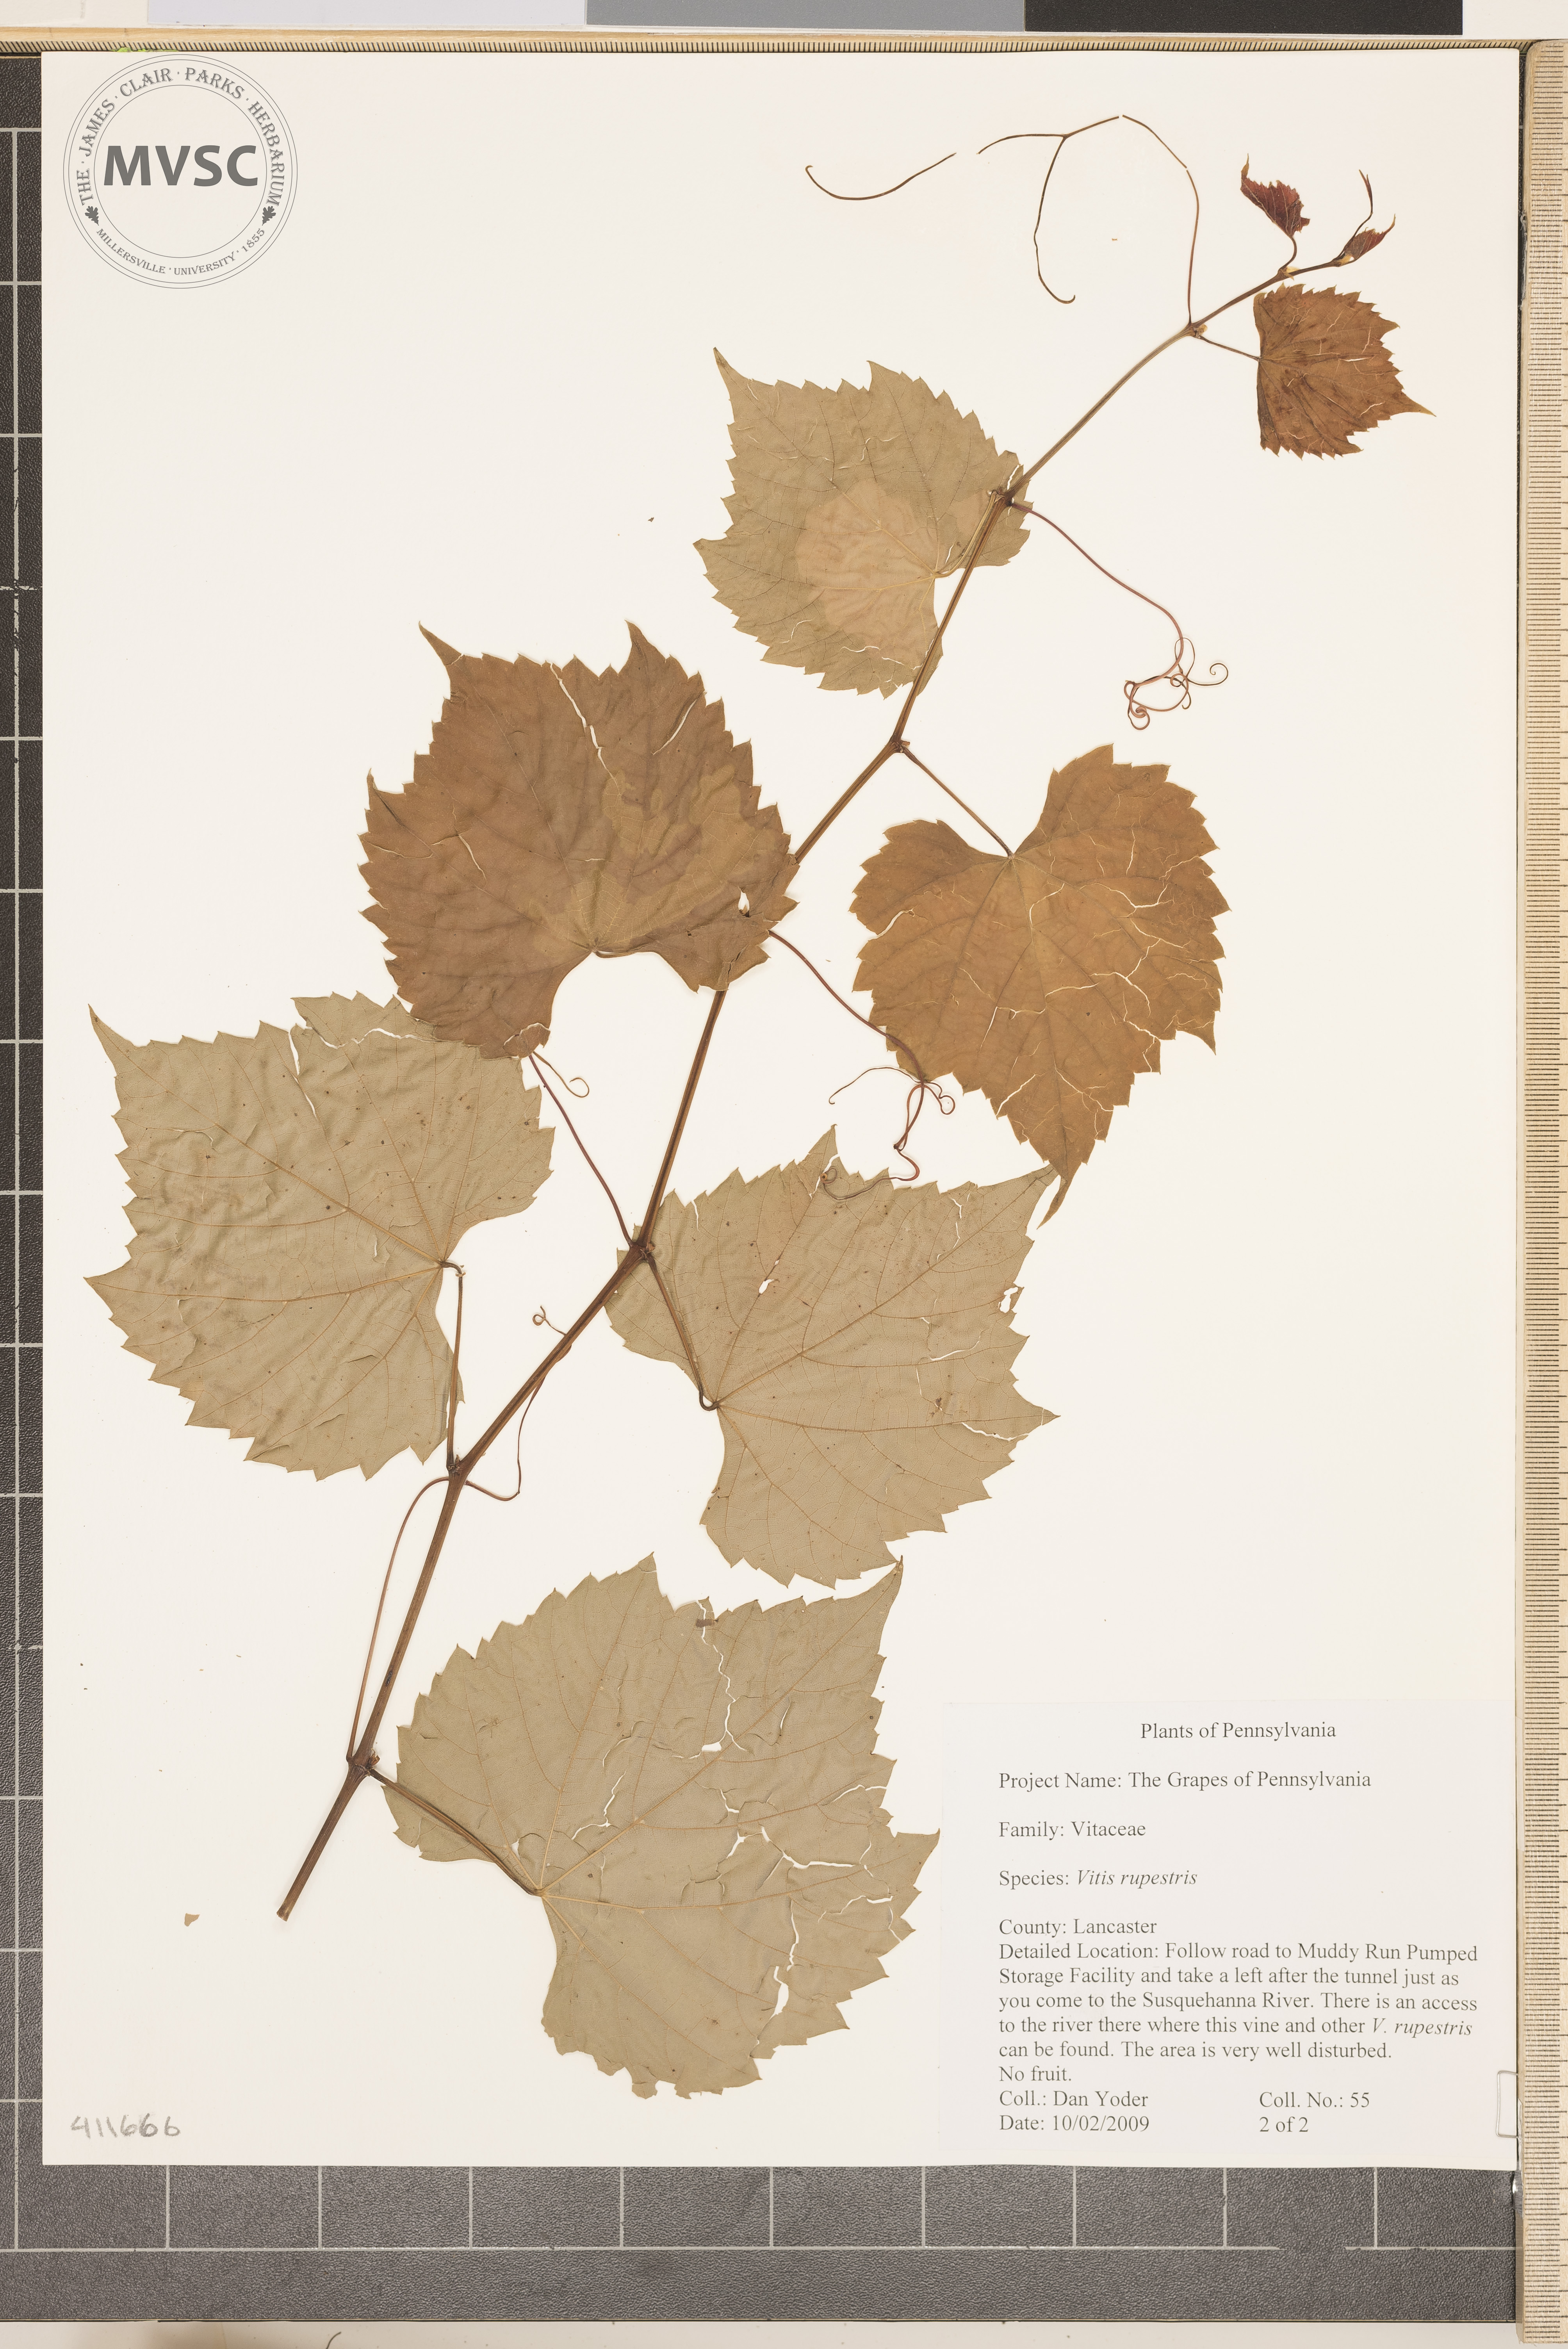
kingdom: Plantae
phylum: Tracheophyta
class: Magnoliopsida
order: Vitales
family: Vitaceae
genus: Vitis
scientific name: Vitis riparia
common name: Frost grape
